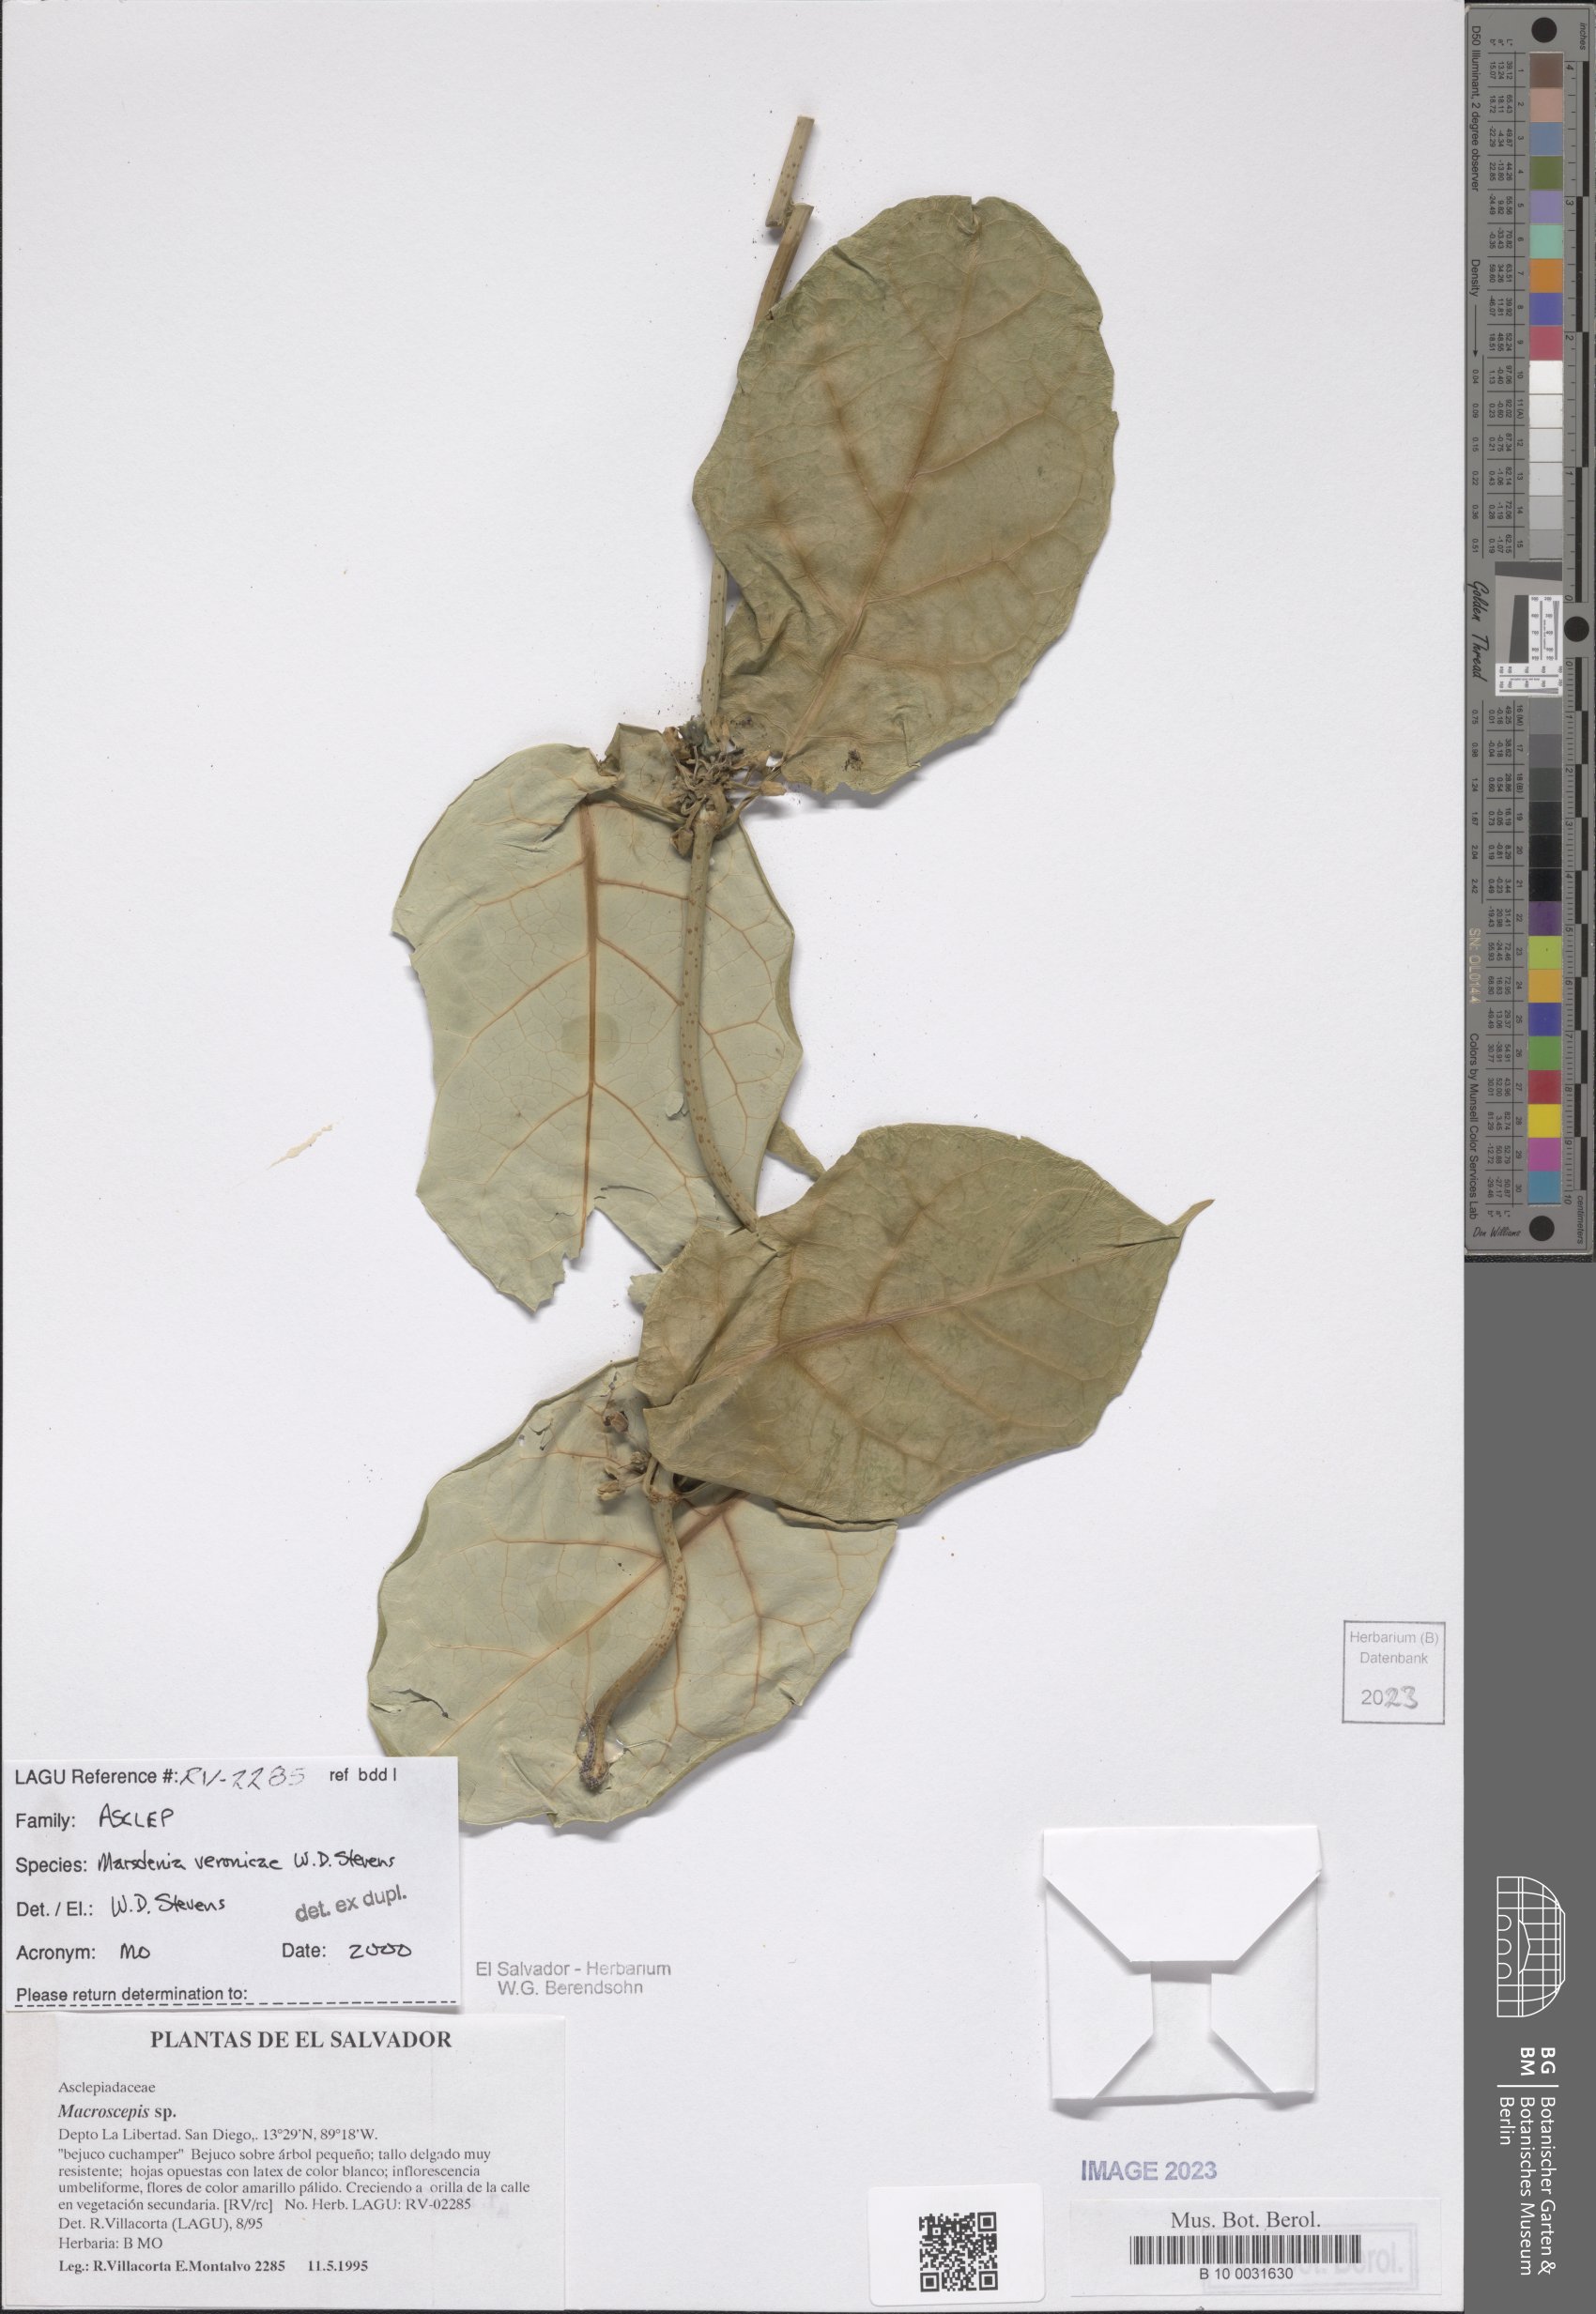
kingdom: Plantae
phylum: Tracheophyta
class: Magnoliopsida
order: Gentianales
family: Apocynaceae
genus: Ruehssia
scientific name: Ruehssia veronicae
